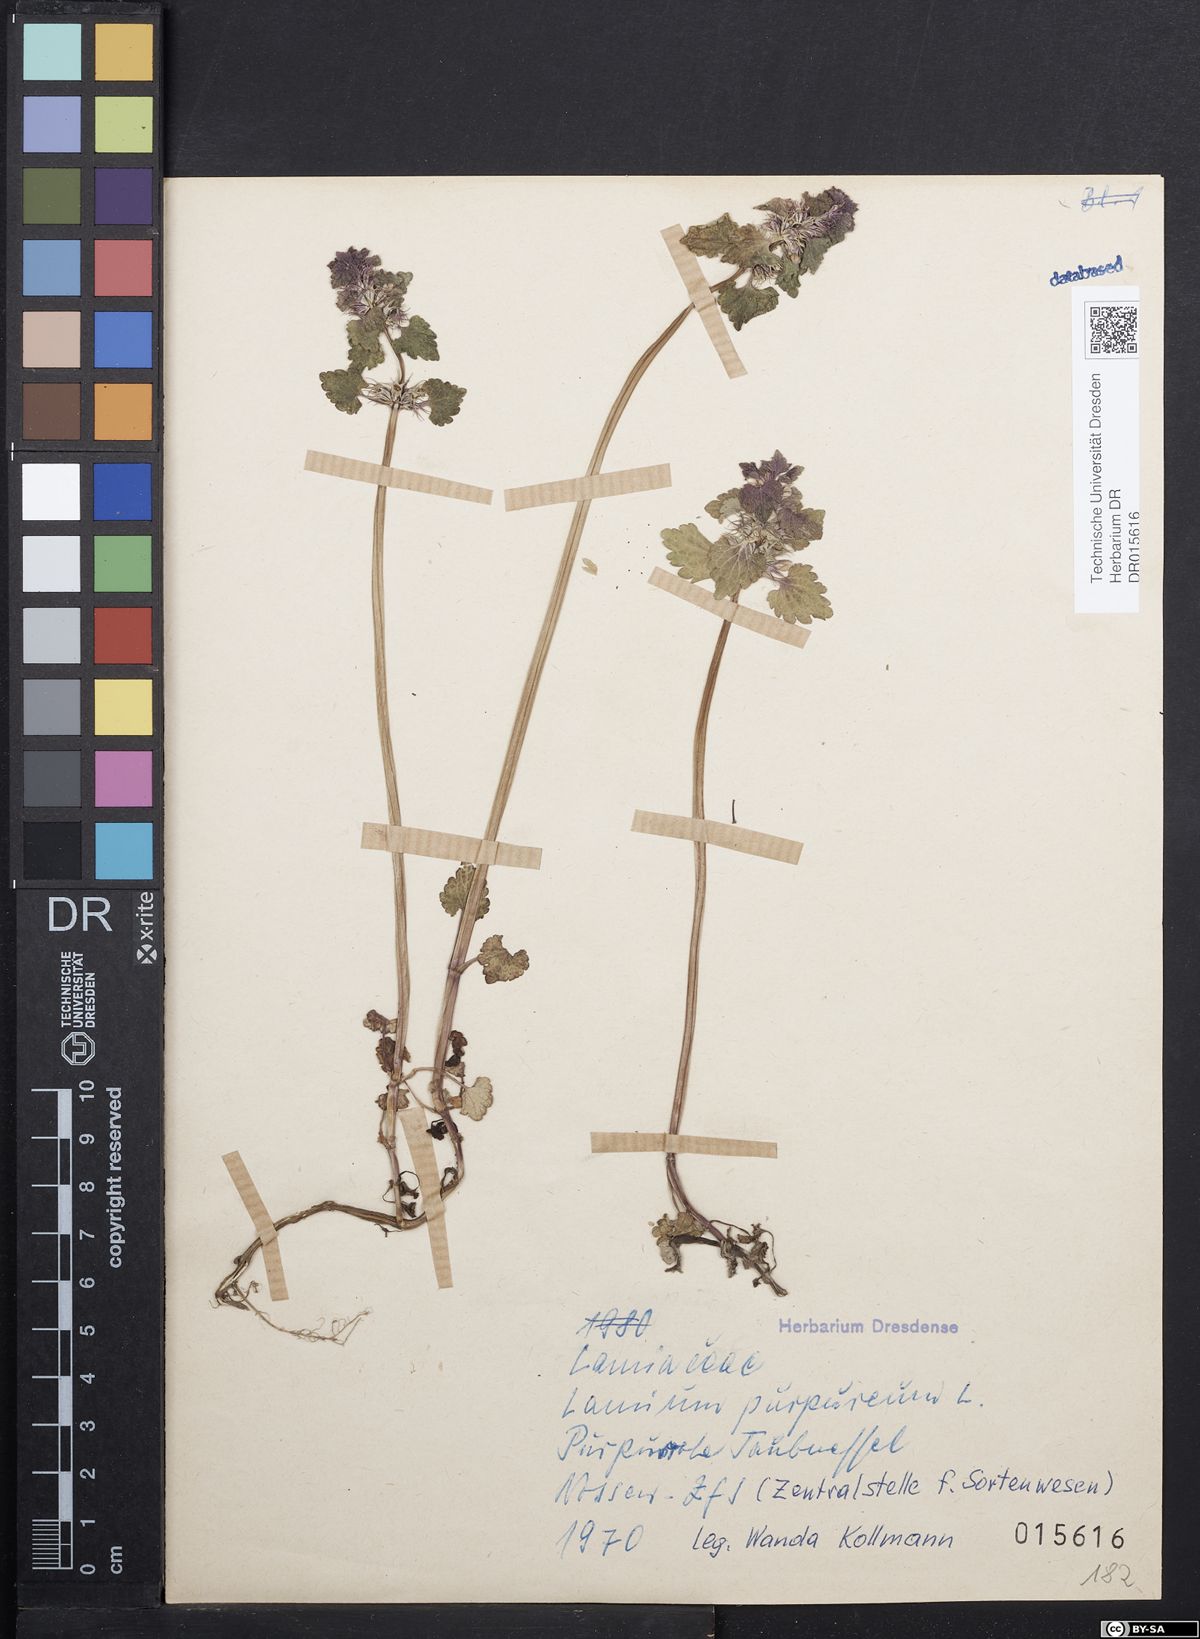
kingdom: Plantae
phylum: Tracheophyta
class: Magnoliopsida
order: Lamiales
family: Lamiaceae
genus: Lamium
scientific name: Lamium purpureum
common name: Red dead-nettle
